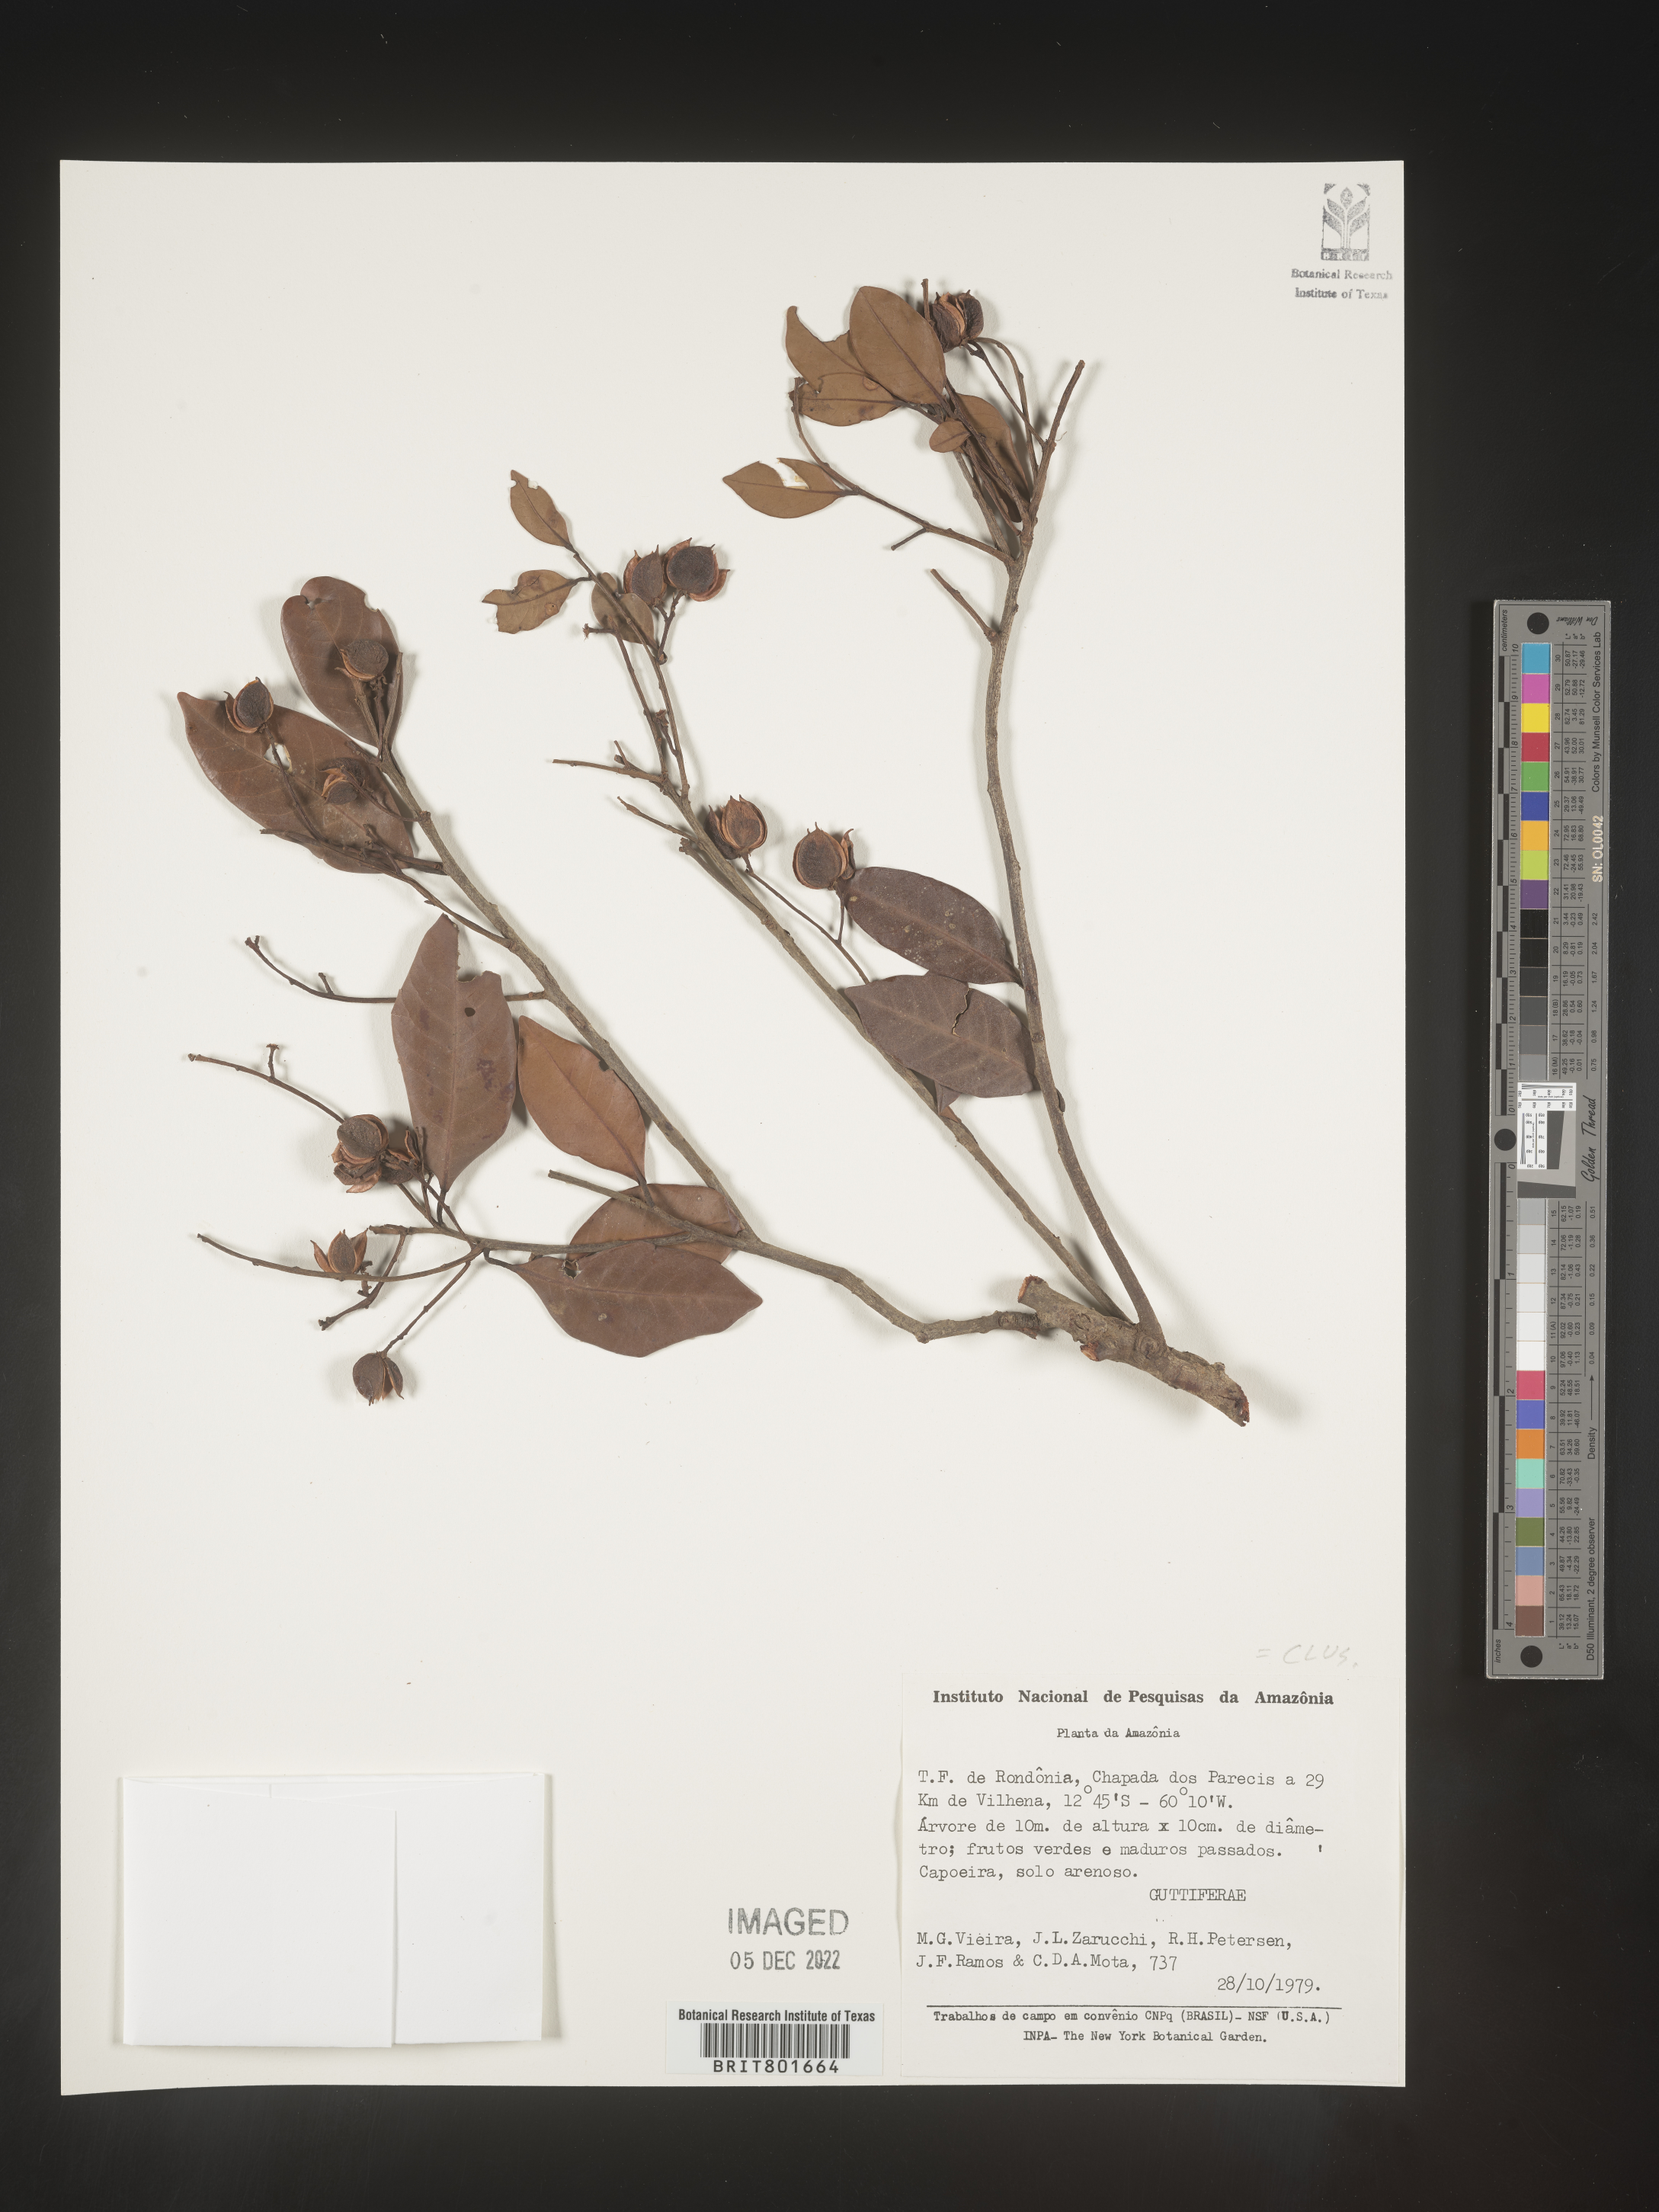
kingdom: Plantae
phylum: Tracheophyta
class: Magnoliopsida
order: Malpighiales
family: Clusiaceae
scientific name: Clusiaceae
